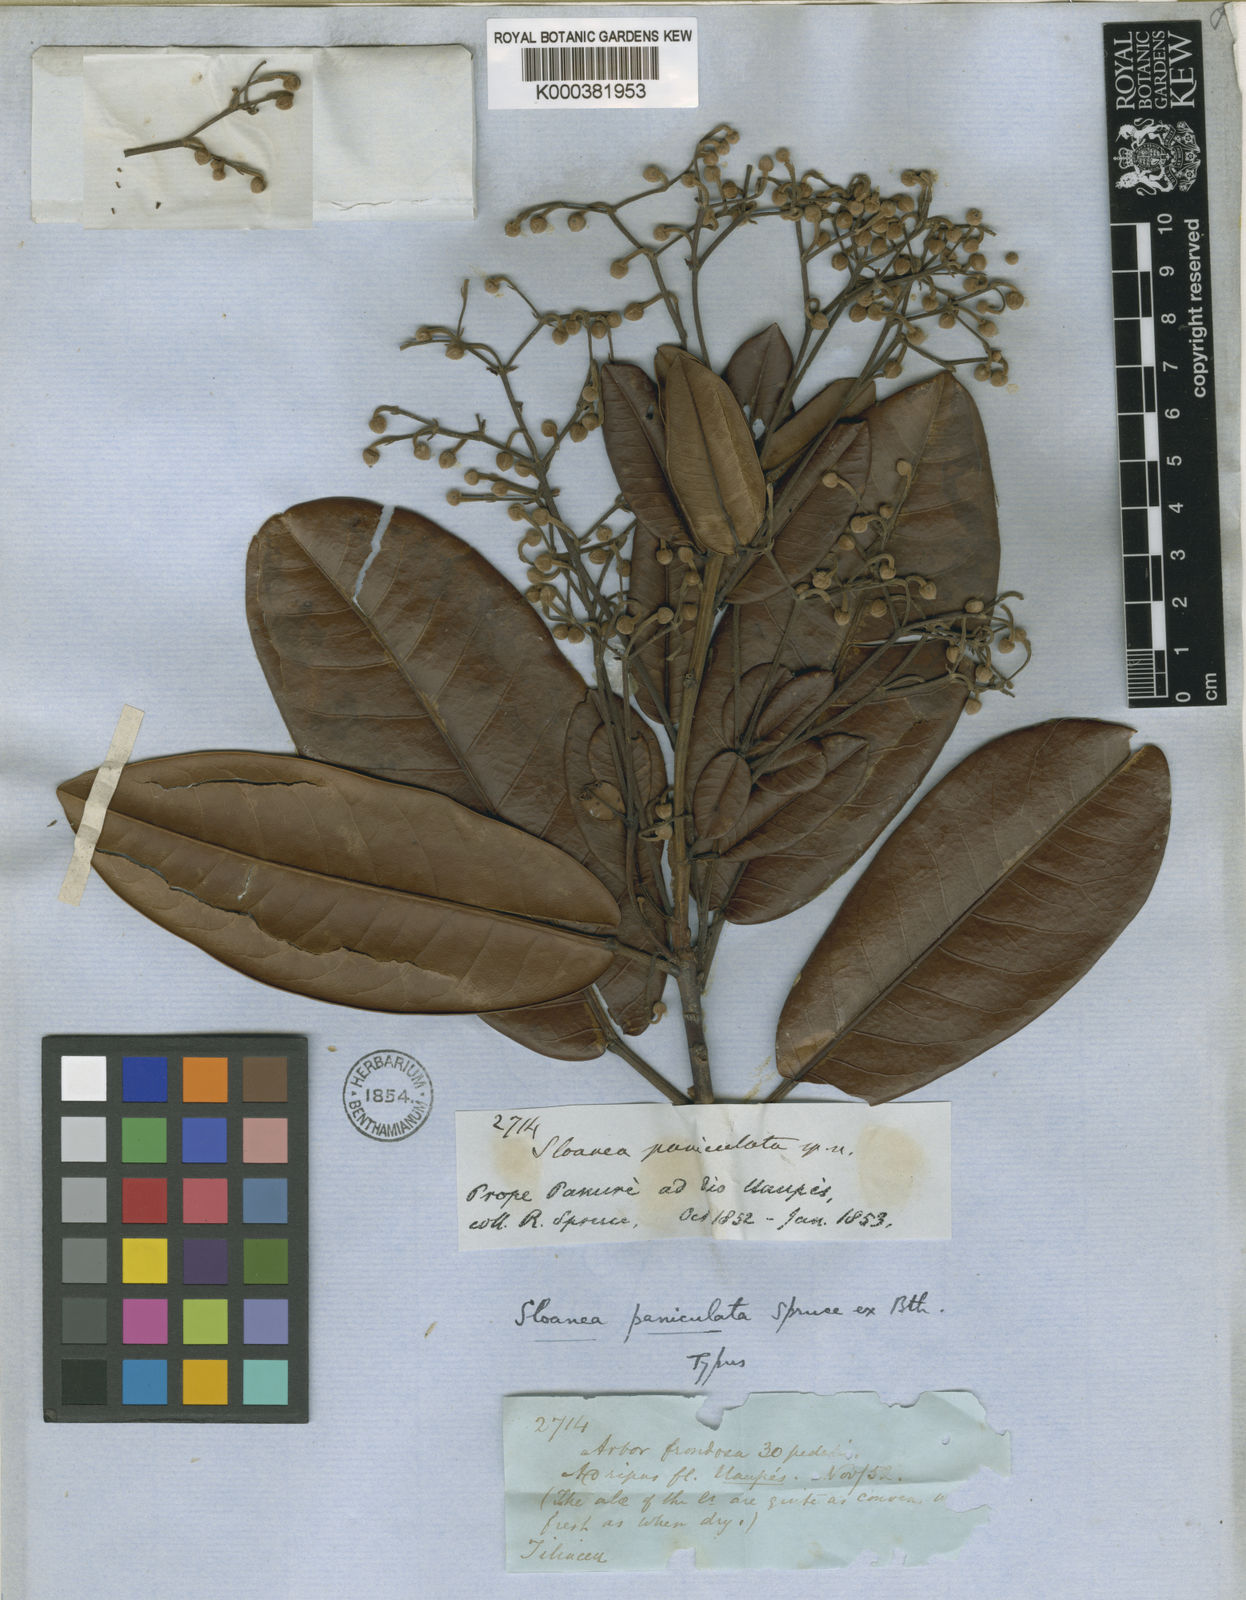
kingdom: Plantae
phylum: Tracheophyta
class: Magnoliopsida
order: Oxalidales
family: Elaeocarpaceae
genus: Sloanea
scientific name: Sloanea floribunda
